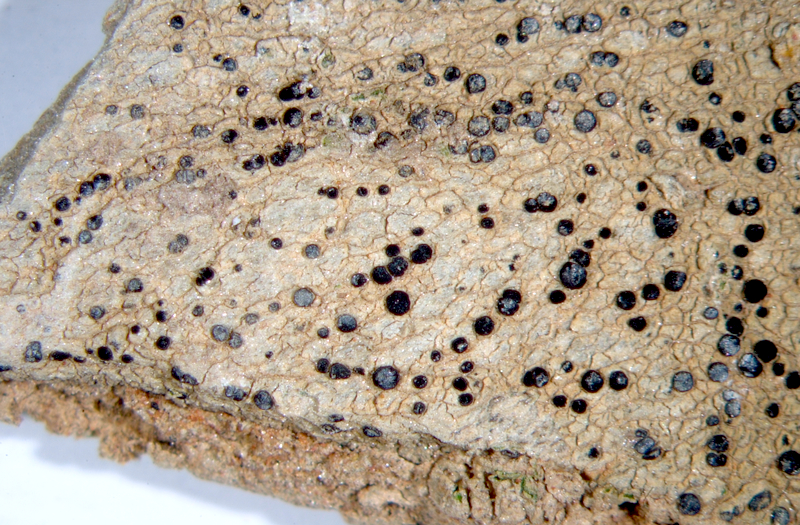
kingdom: Fungi
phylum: Ascomycota
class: Lecanoromycetes
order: Lecanorales
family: Lecanoraceae
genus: Lecidella
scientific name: Lecidella
